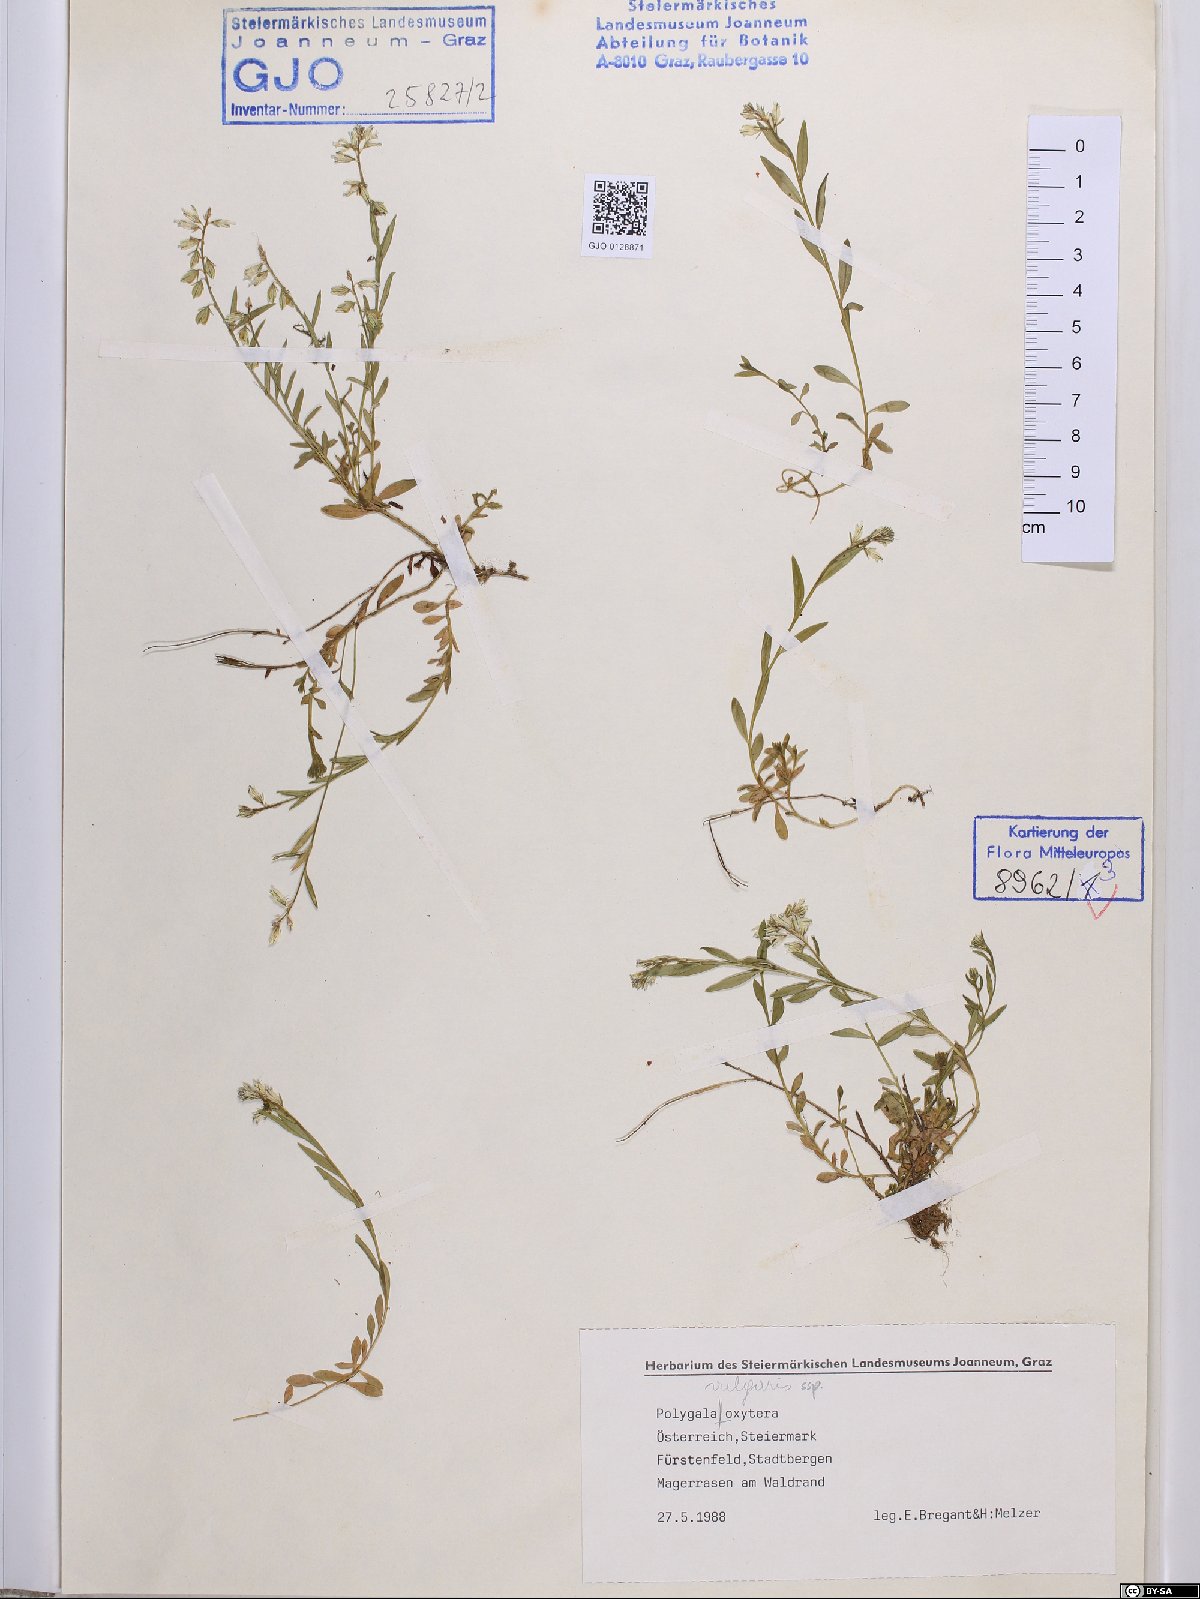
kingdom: Plantae
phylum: Tracheophyta
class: Magnoliopsida
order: Fabales
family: Polygalaceae
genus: Polygala
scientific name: Polygala vulgaris
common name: Common milkwort
